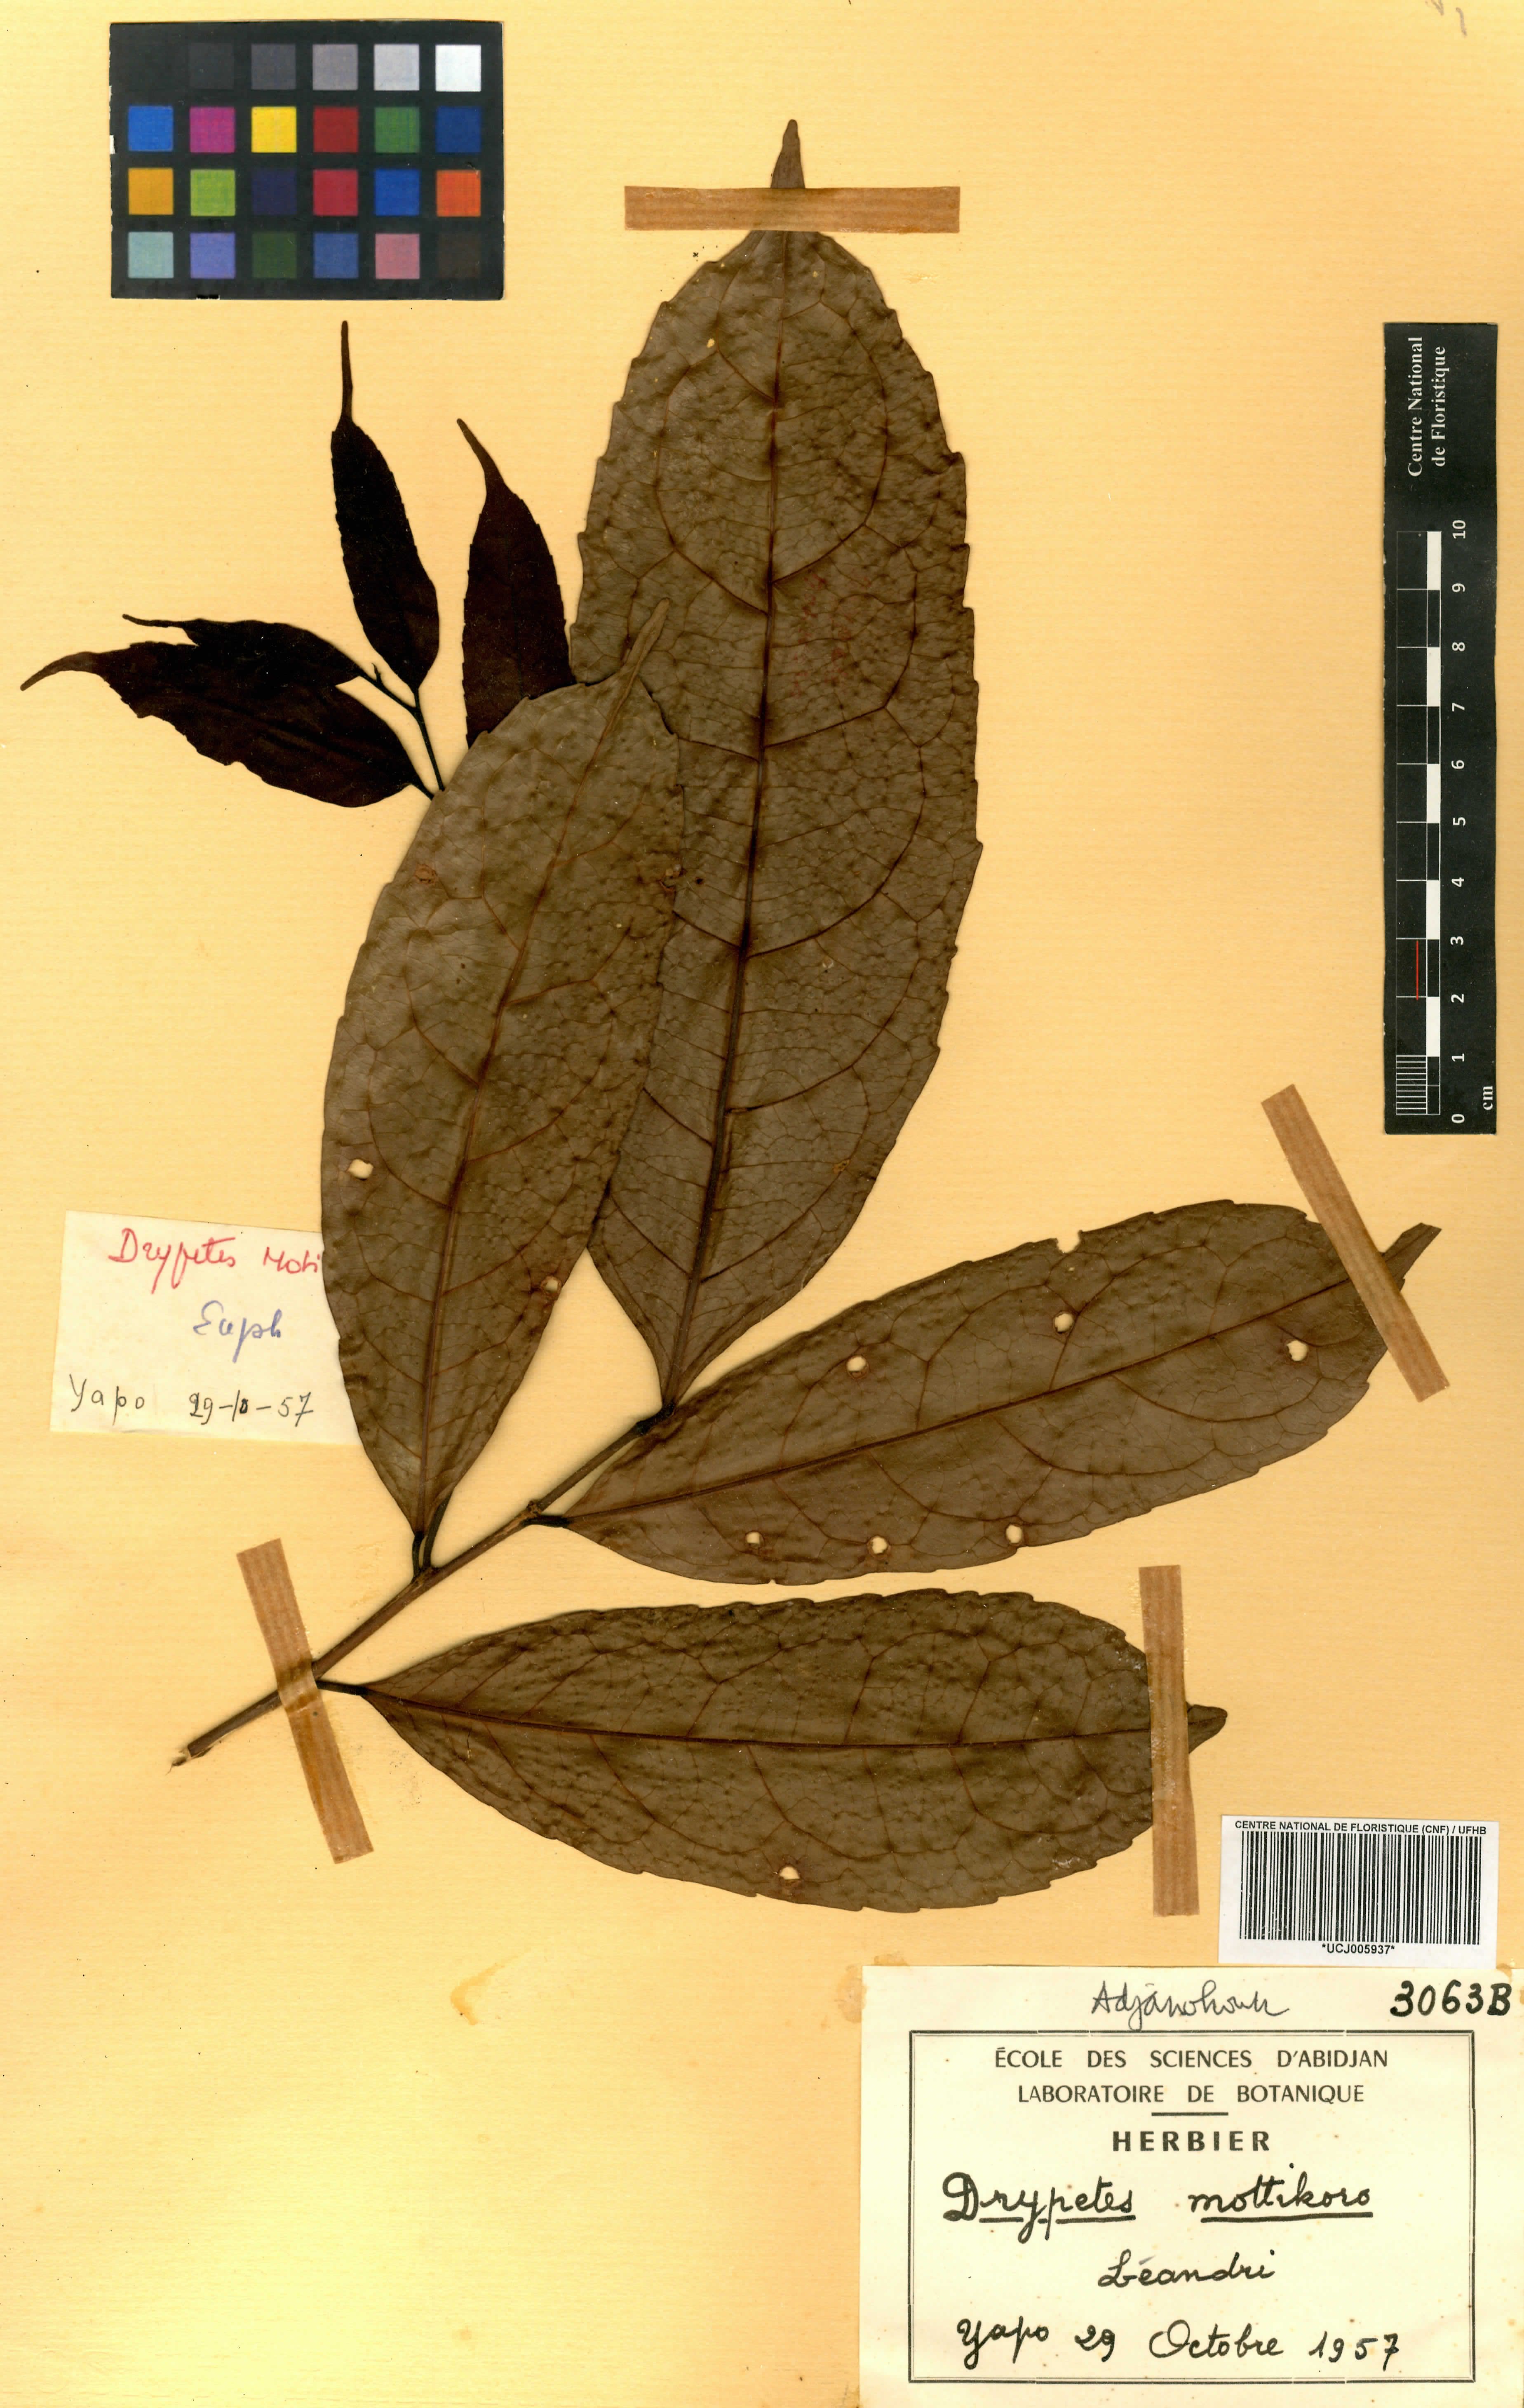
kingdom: Plantae
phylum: Tracheophyta
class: Magnoliopsida
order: Malpighiales
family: Putranjivaceae
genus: Drypetes
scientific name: Drypetes aylmeri
